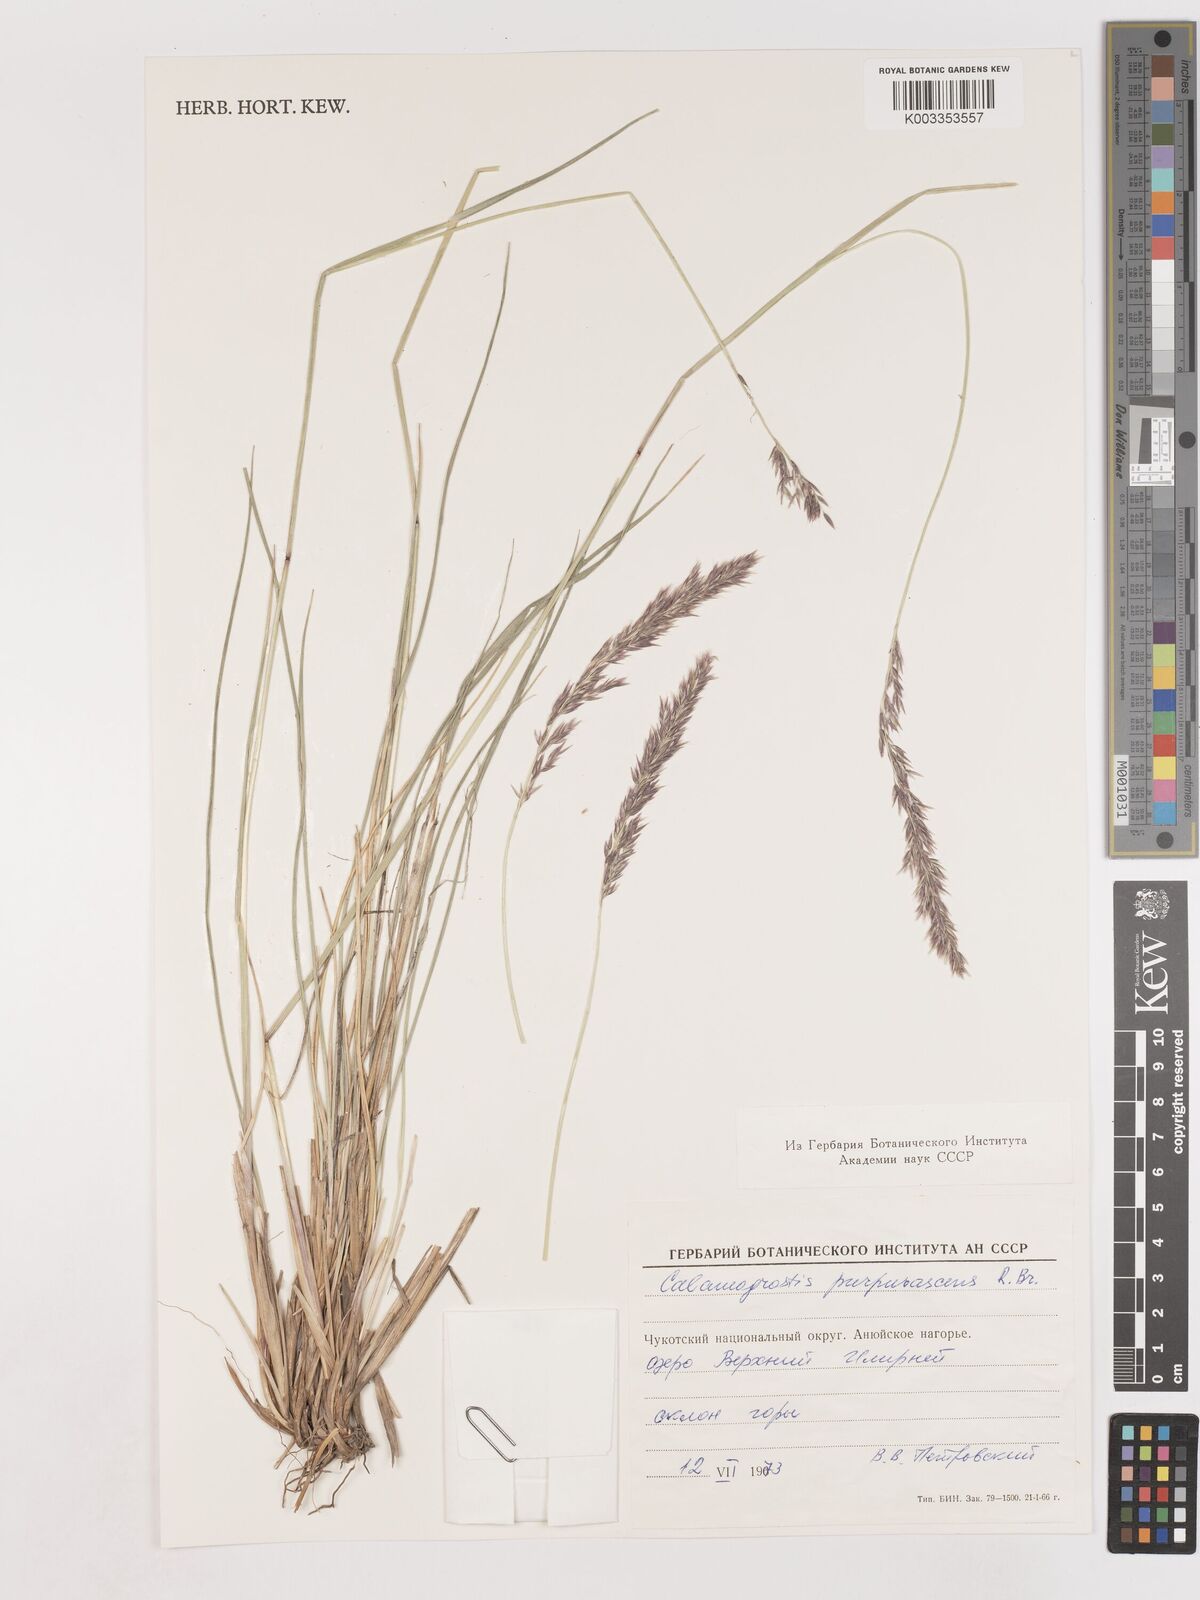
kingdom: Plantae
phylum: Tracheophyta
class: Liliopsida
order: Poales
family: Poaceae
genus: Calamagrostis
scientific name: Calamagrostis purpurascens
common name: Purple reedgrass
